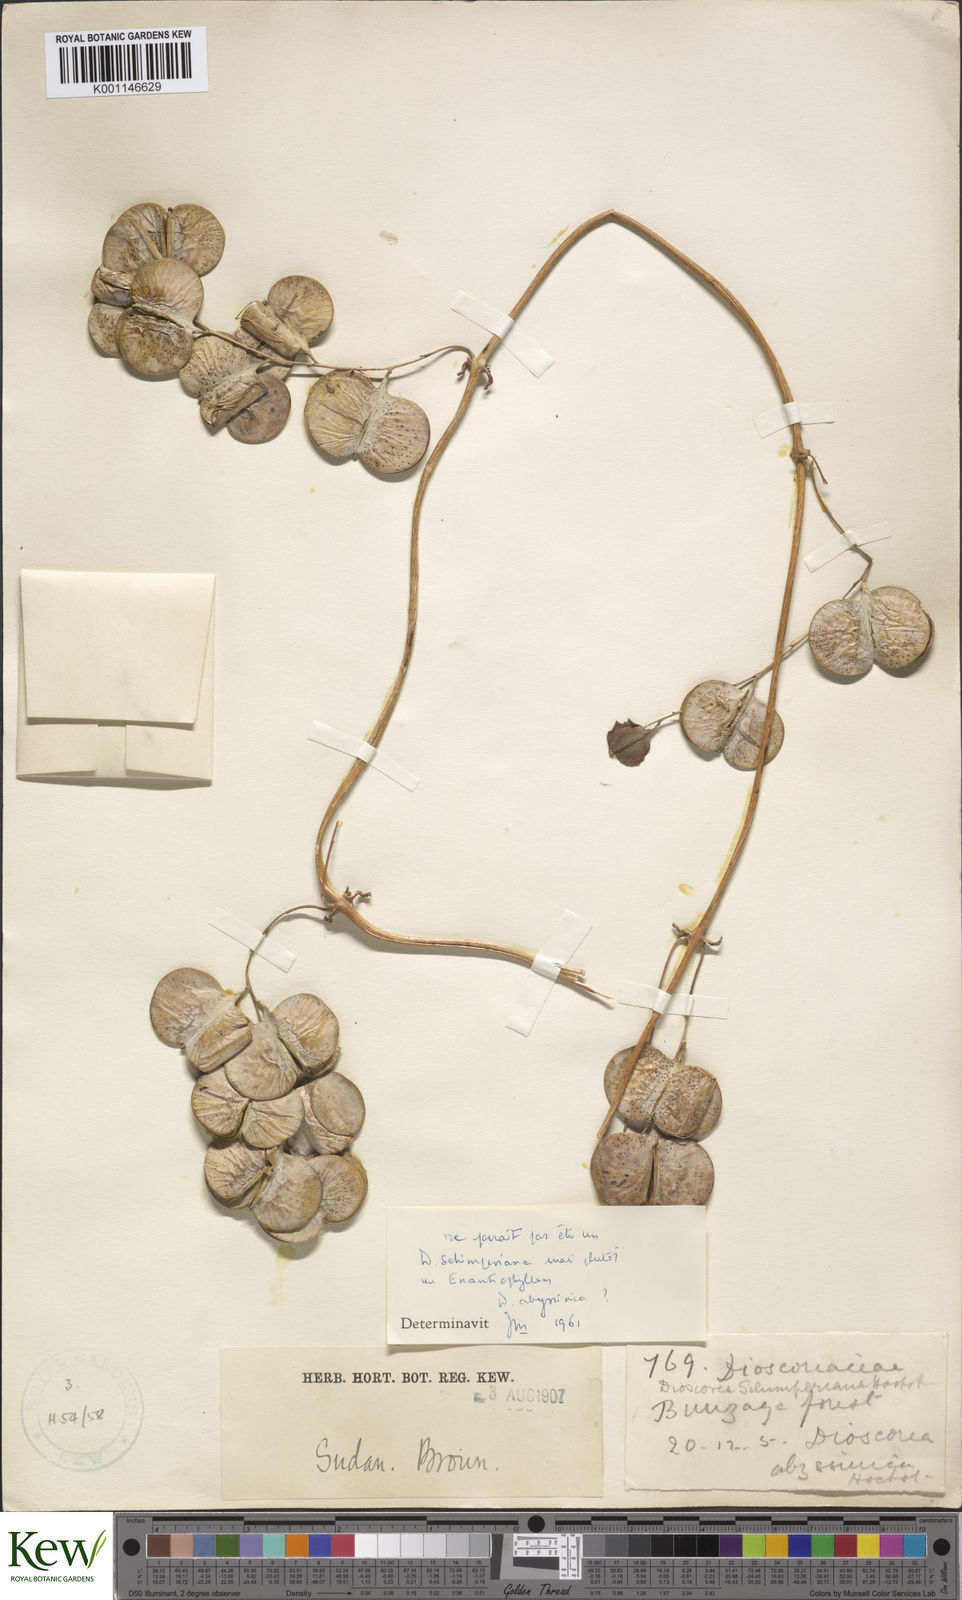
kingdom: Plantae
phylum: Tracheophyta
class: Liliopsida
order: Dioscoreales
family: Dioscoreaceae
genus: Dioscorea
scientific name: Dioscorea abyssinica
